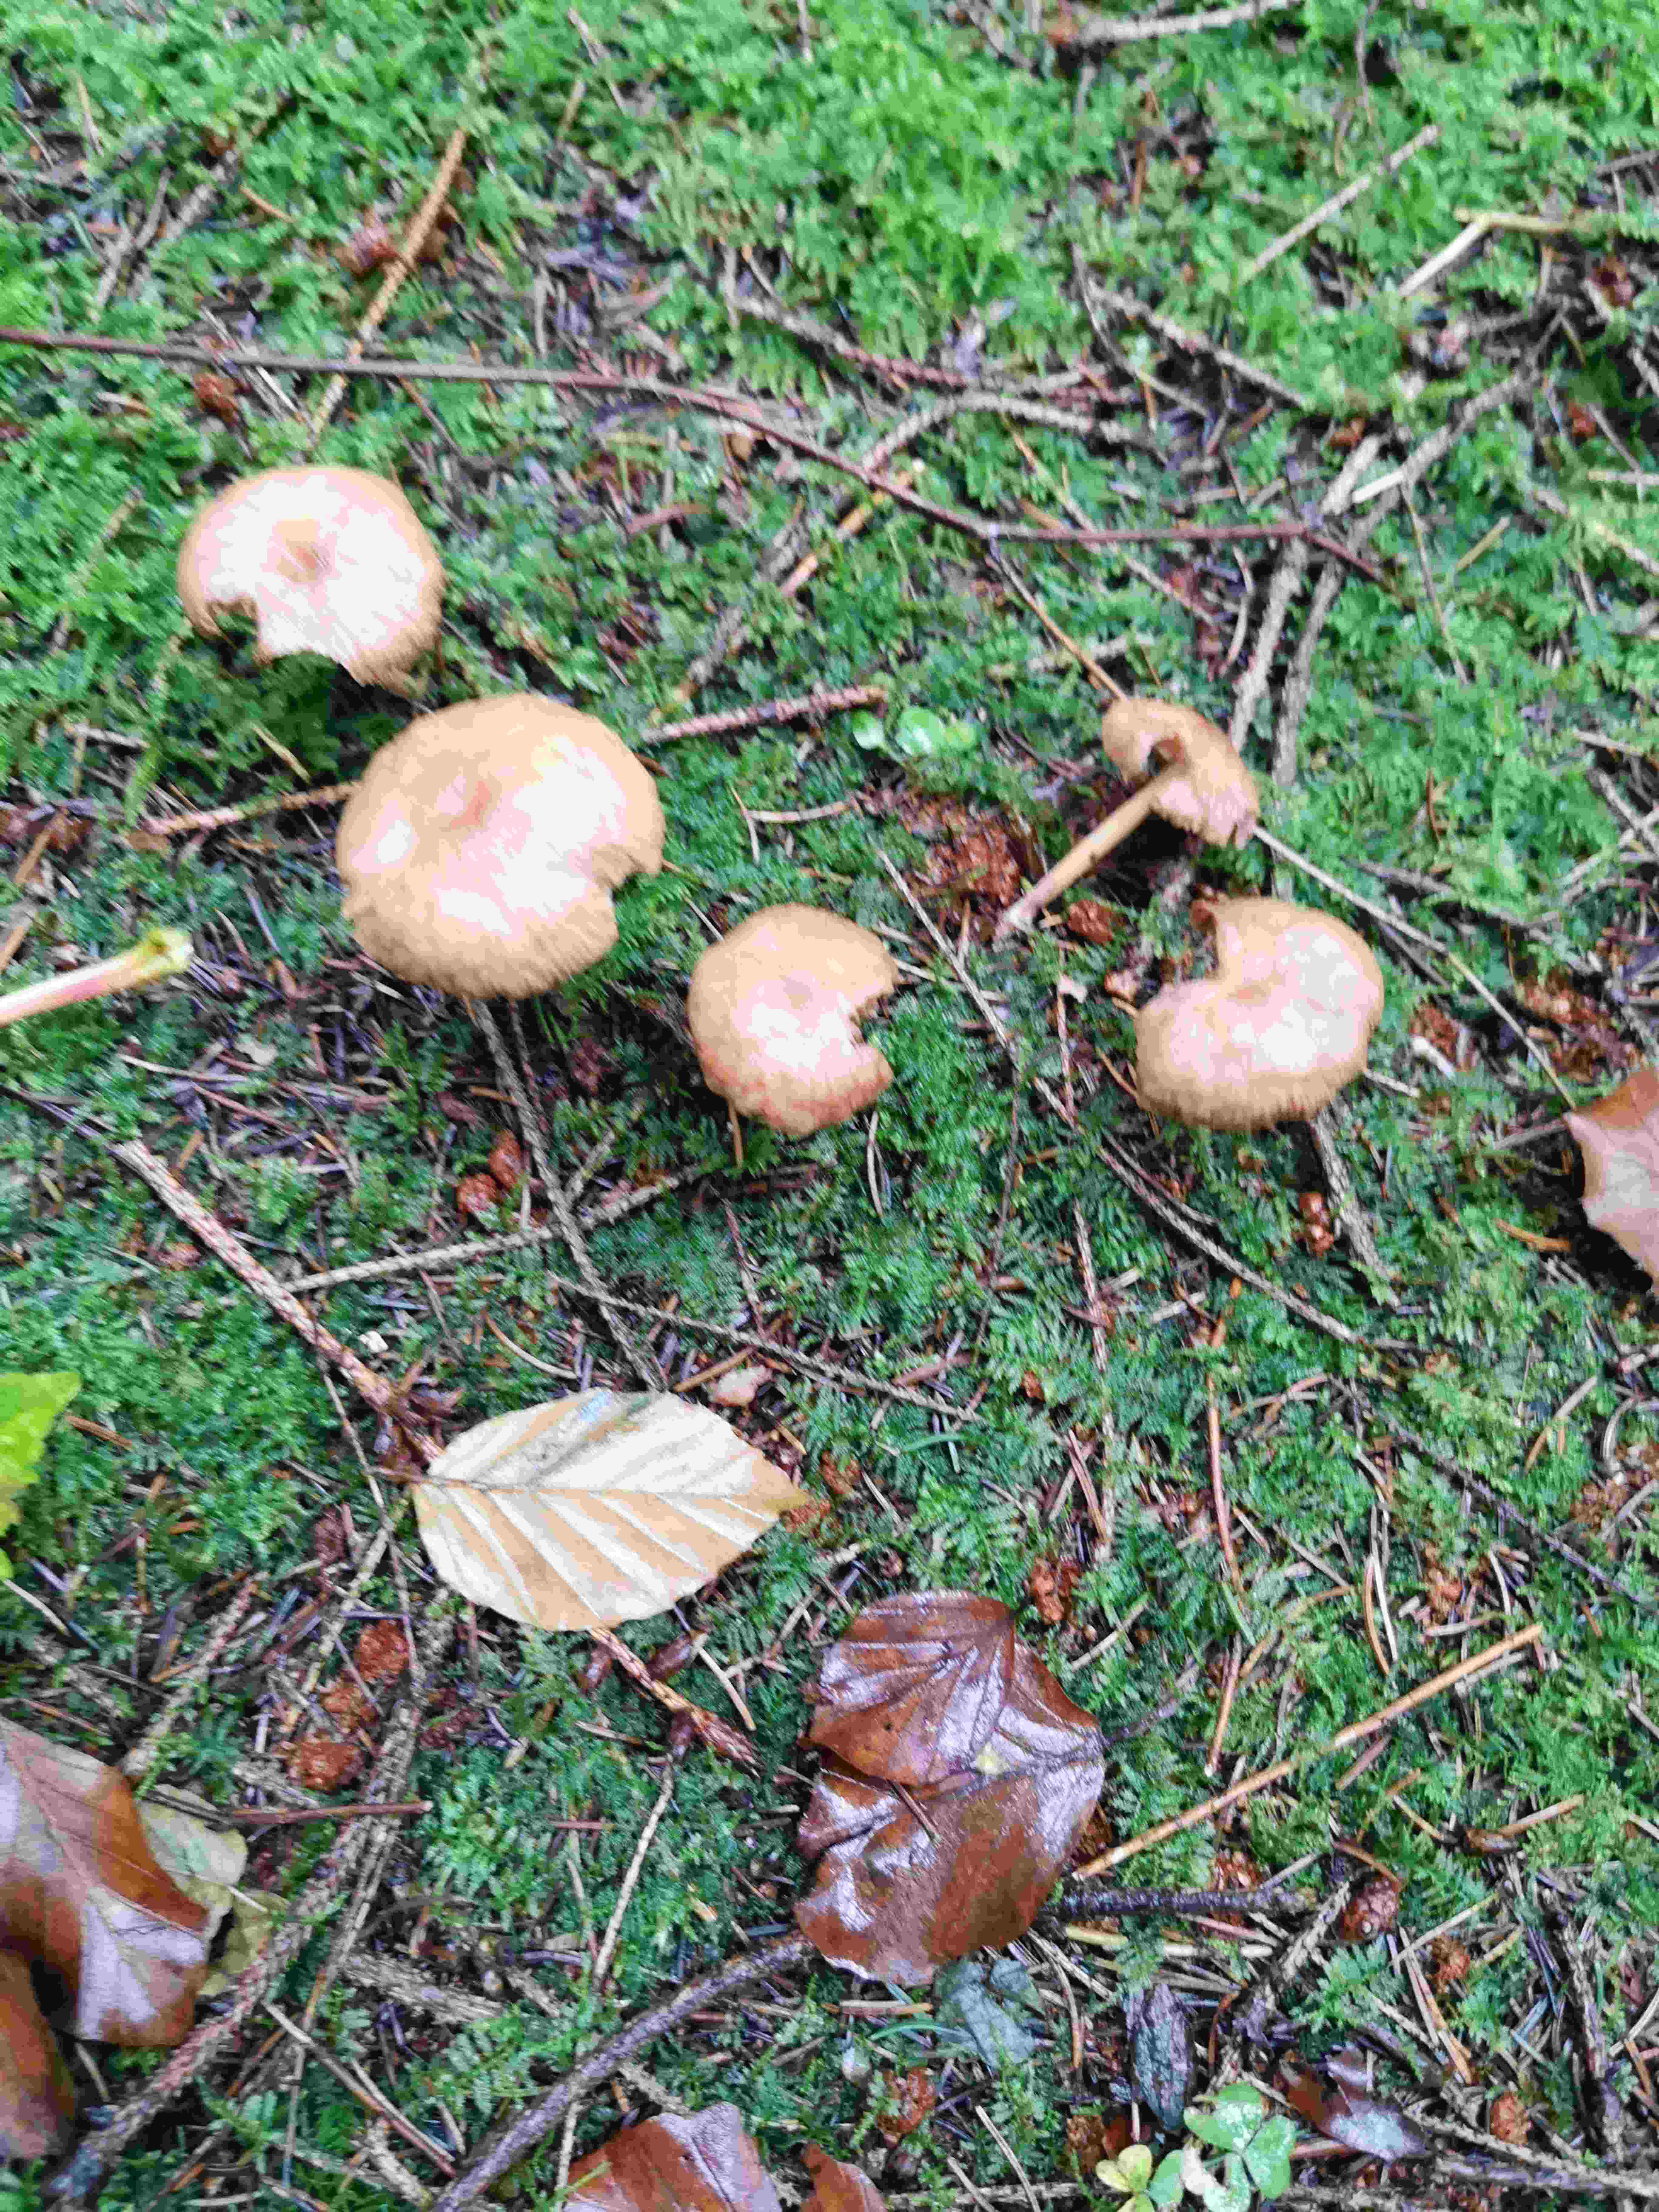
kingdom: Fungi
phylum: Basidiomycota
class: Agaricomycetes
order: Agaricales
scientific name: Agaricales
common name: champignonordenen
